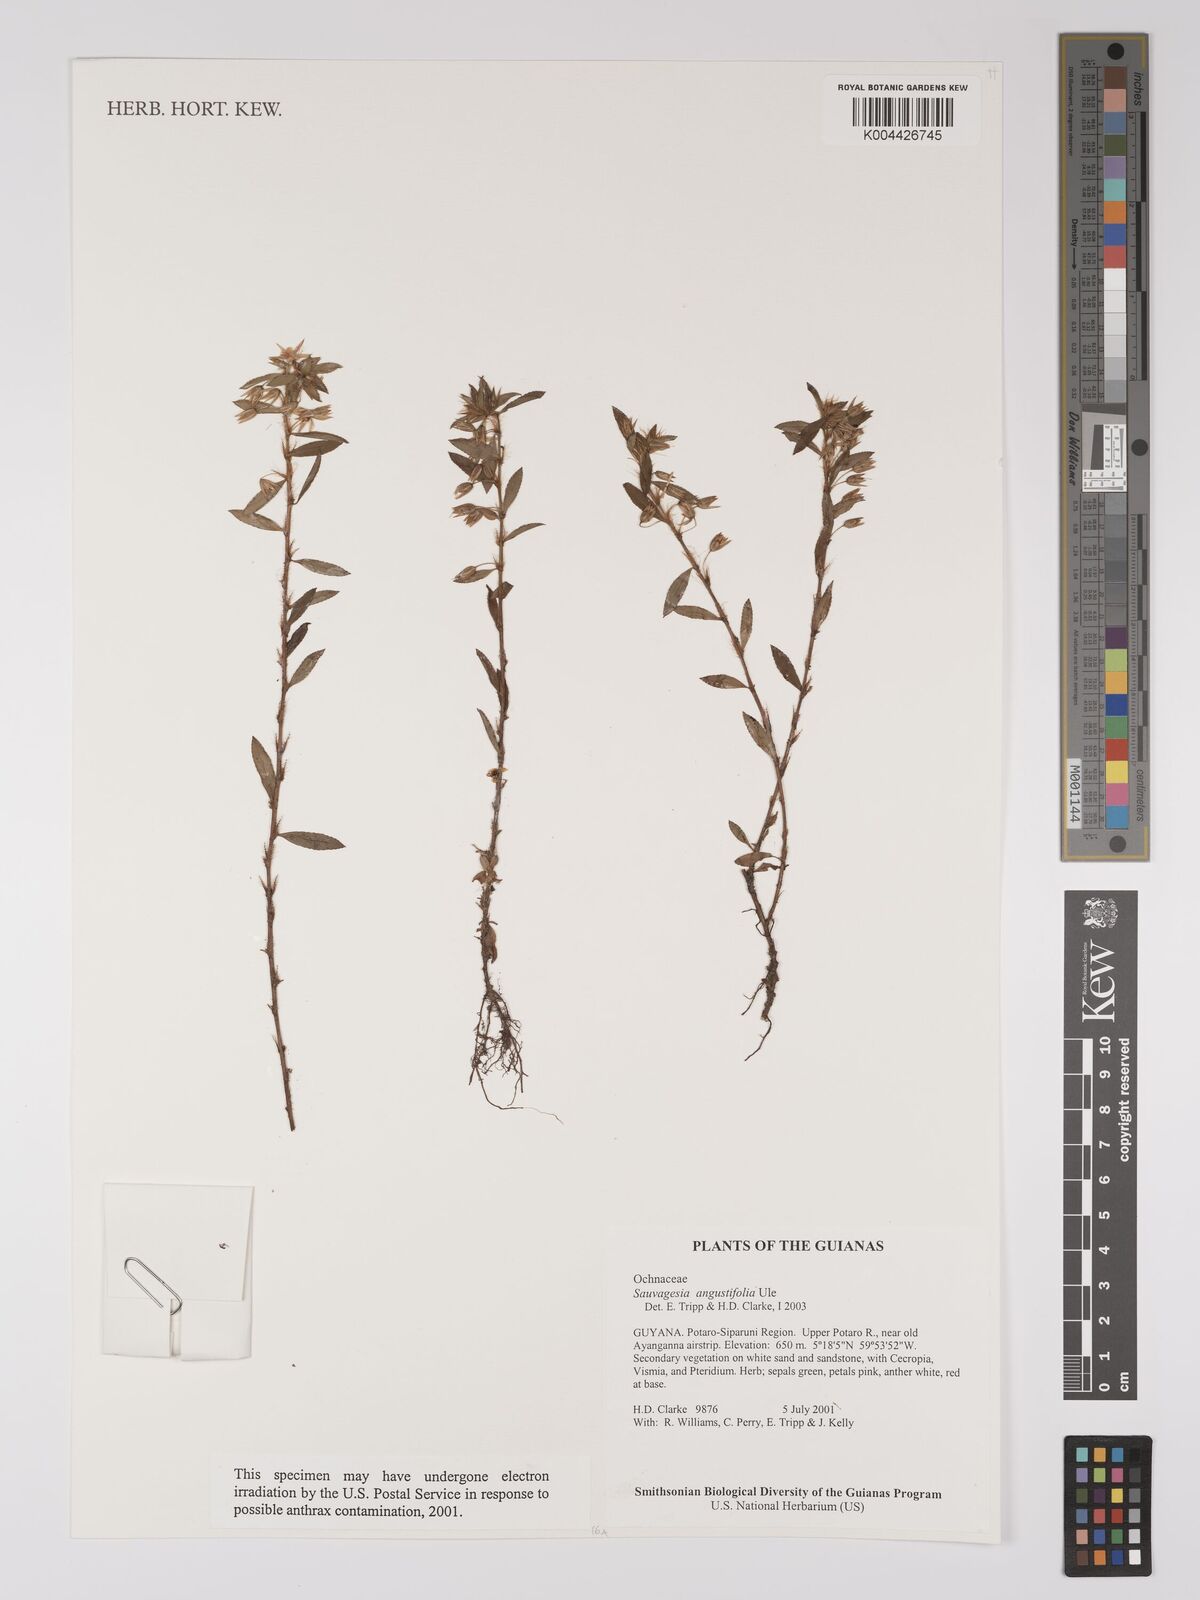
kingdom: Plantae
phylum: Tracheophyta
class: Magnoliopsida
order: Malpighiales
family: Ochnaceae
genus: Sauvagesia
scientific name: Sauvagesia angustifolia
